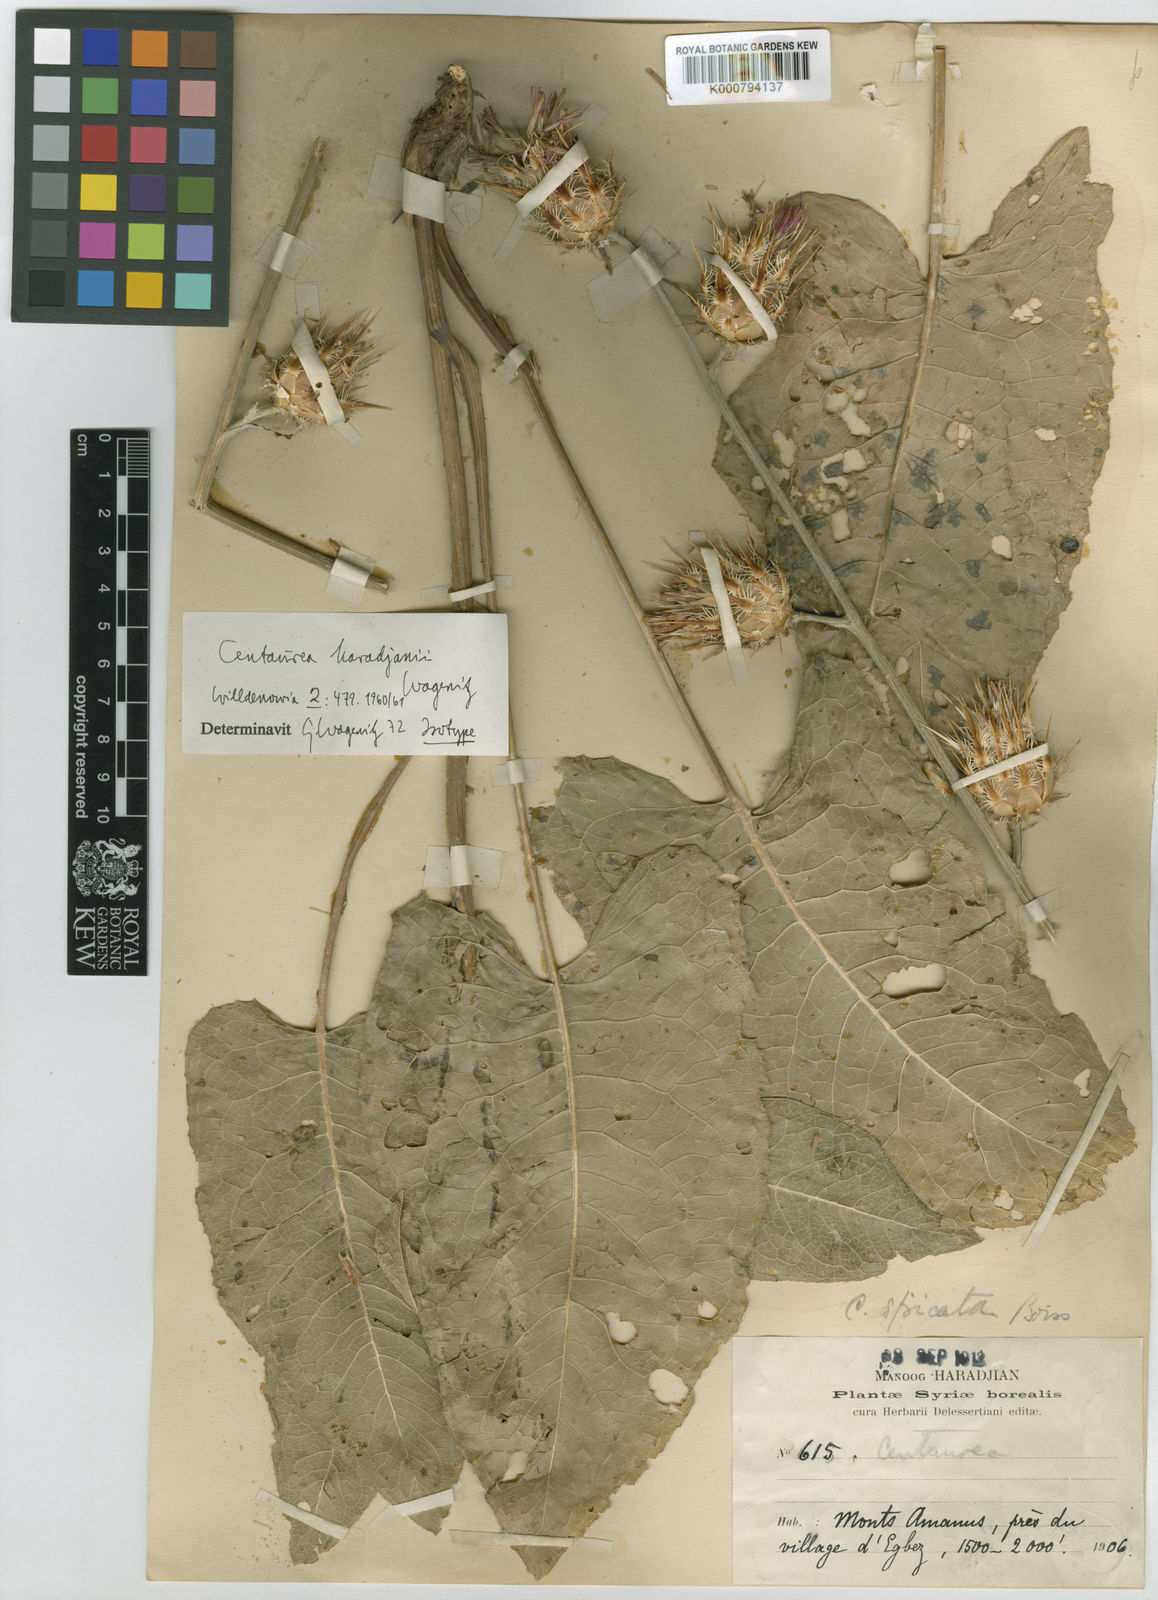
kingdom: Plantae
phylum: Tracheophyta
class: Magnoliopsida
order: Asterales
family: Asteraceae
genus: Centaurea
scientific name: Centaurea haradjianii
